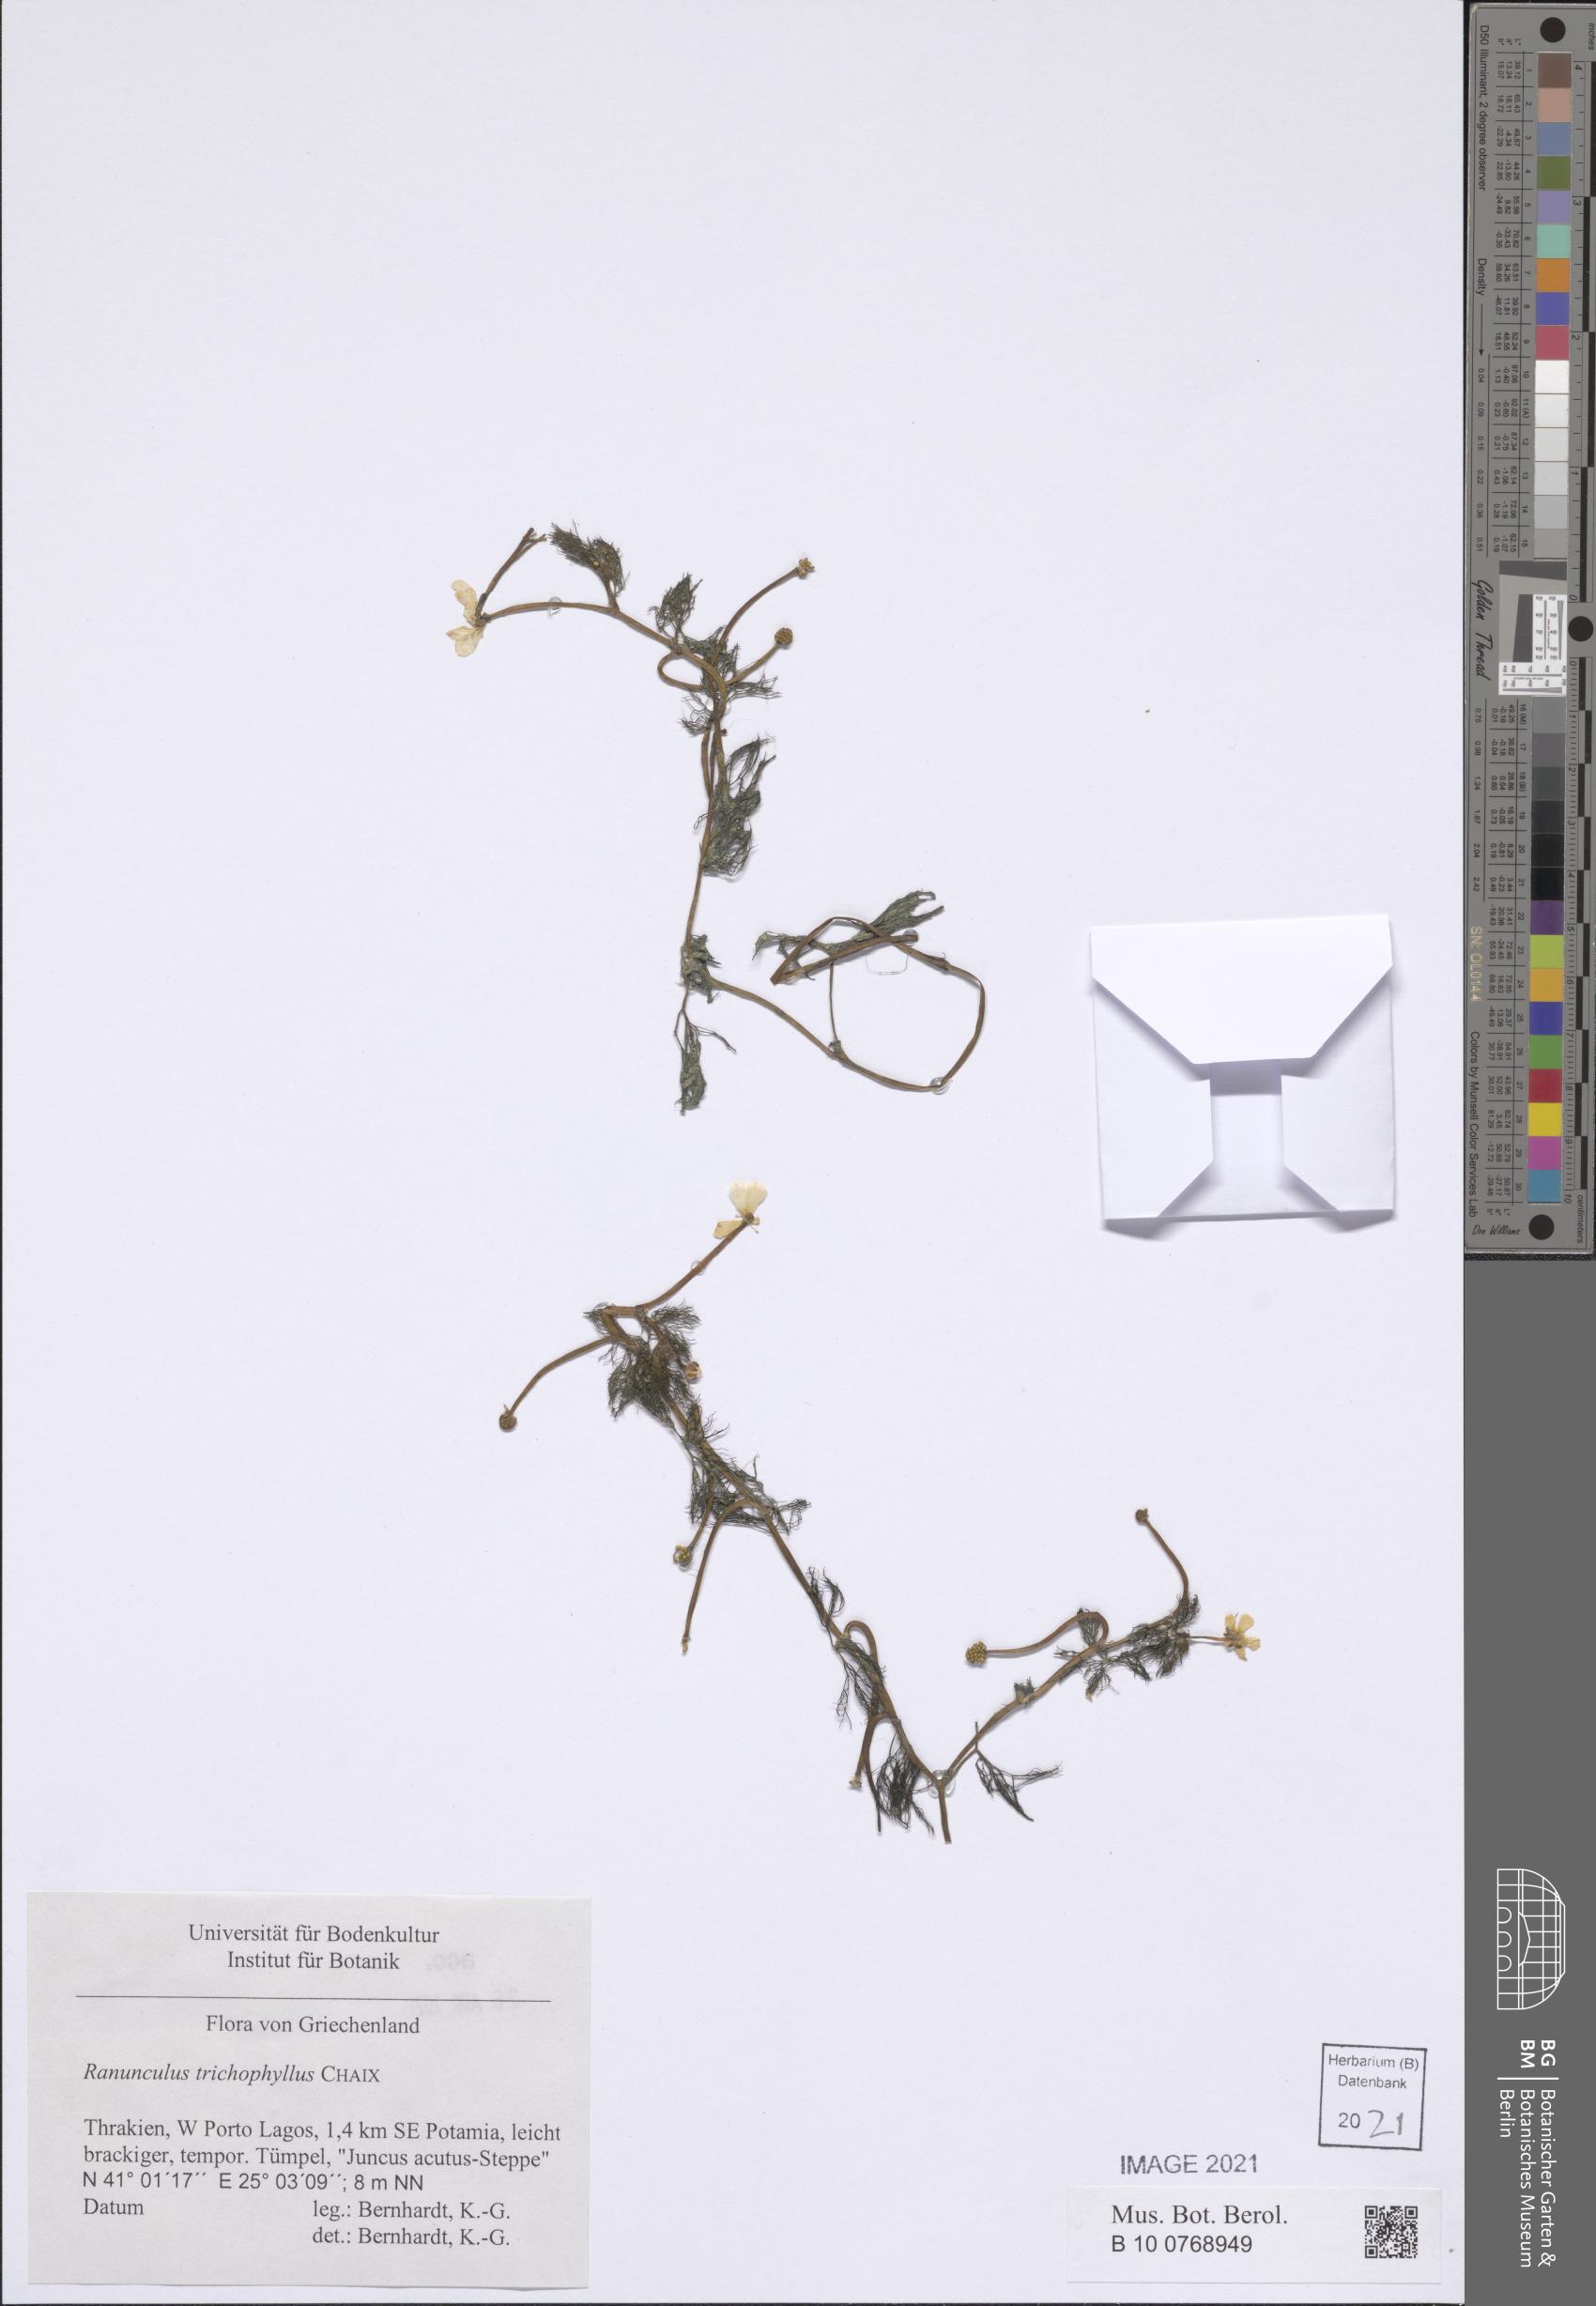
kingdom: Plantae
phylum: Tracheophyta
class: Magnoliopsida
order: Ranunculales
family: Ranunculaceae
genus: Ranunculus
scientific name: Ranunculus rionii
